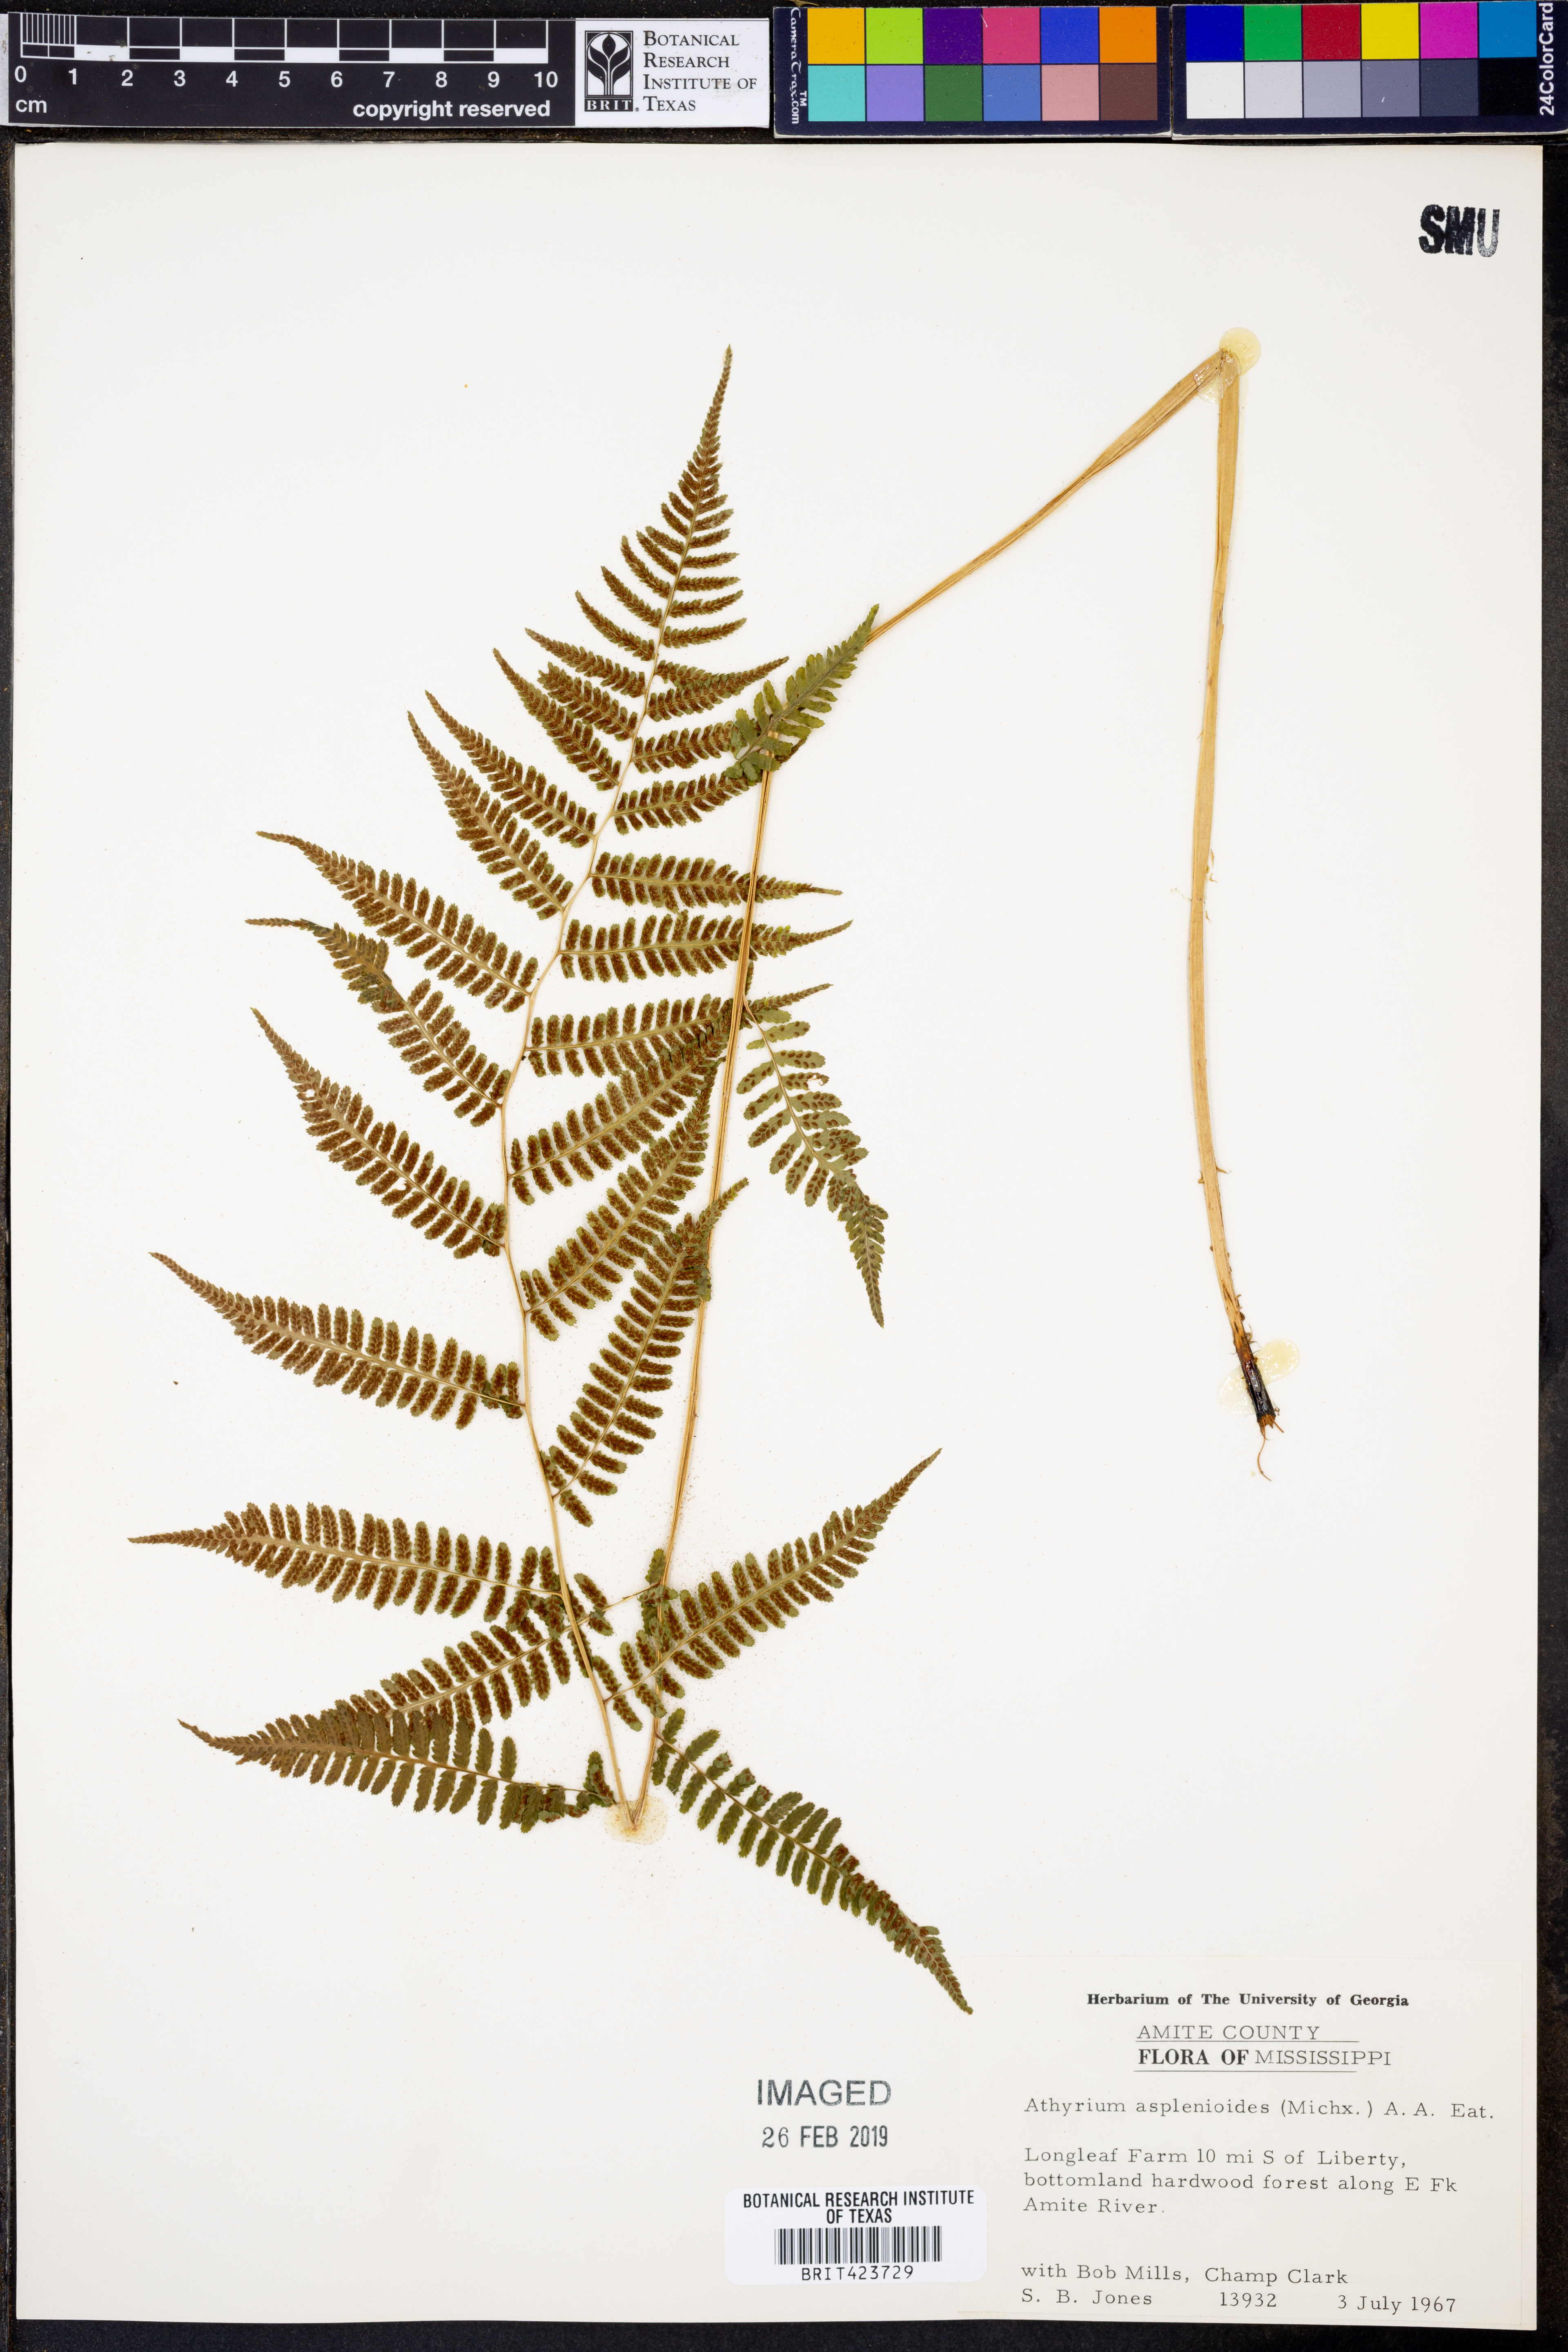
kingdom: Plantae
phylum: Tracheophyta
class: Polypodiopsida
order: Polypodiales
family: Athyriaceae
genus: Athyrium
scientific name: Athyrium asplenioides
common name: Southern lady fern
